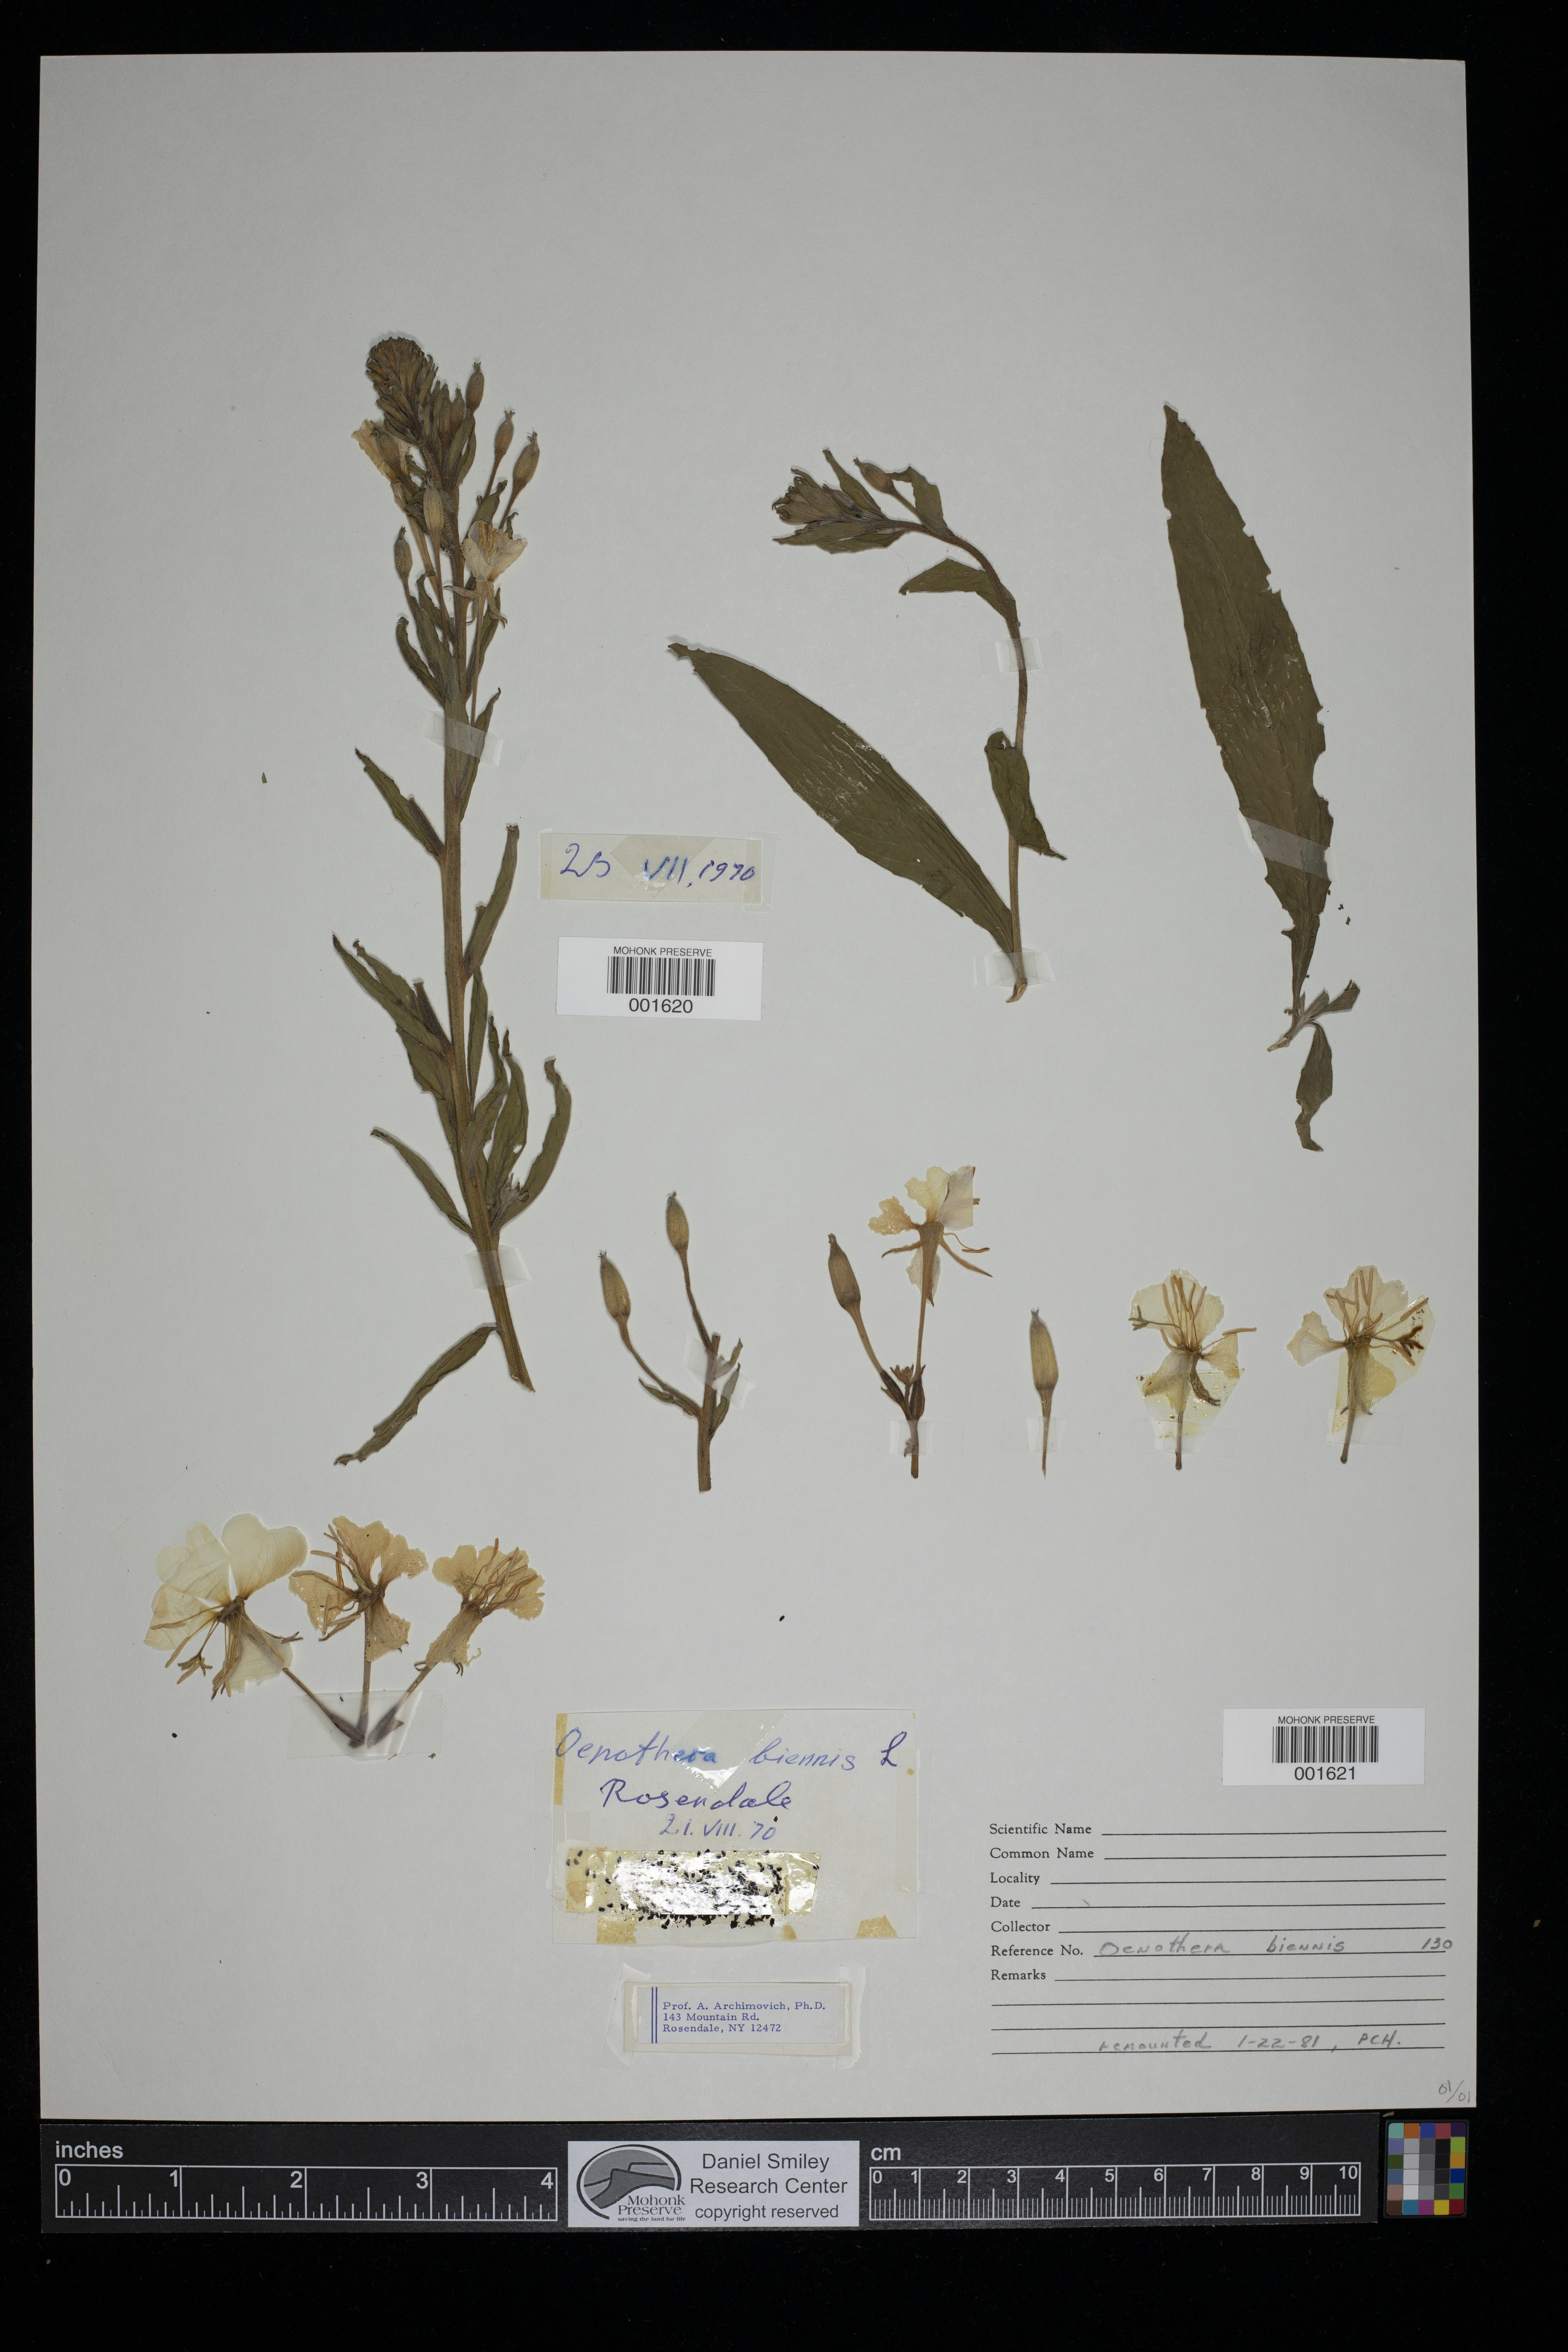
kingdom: Plantae
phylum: Tracheophyta
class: Magnoliopsida
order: Myrtales
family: Onagraceae
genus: Oenothera
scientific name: Oenothera biennis
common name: Common evening-primrose
